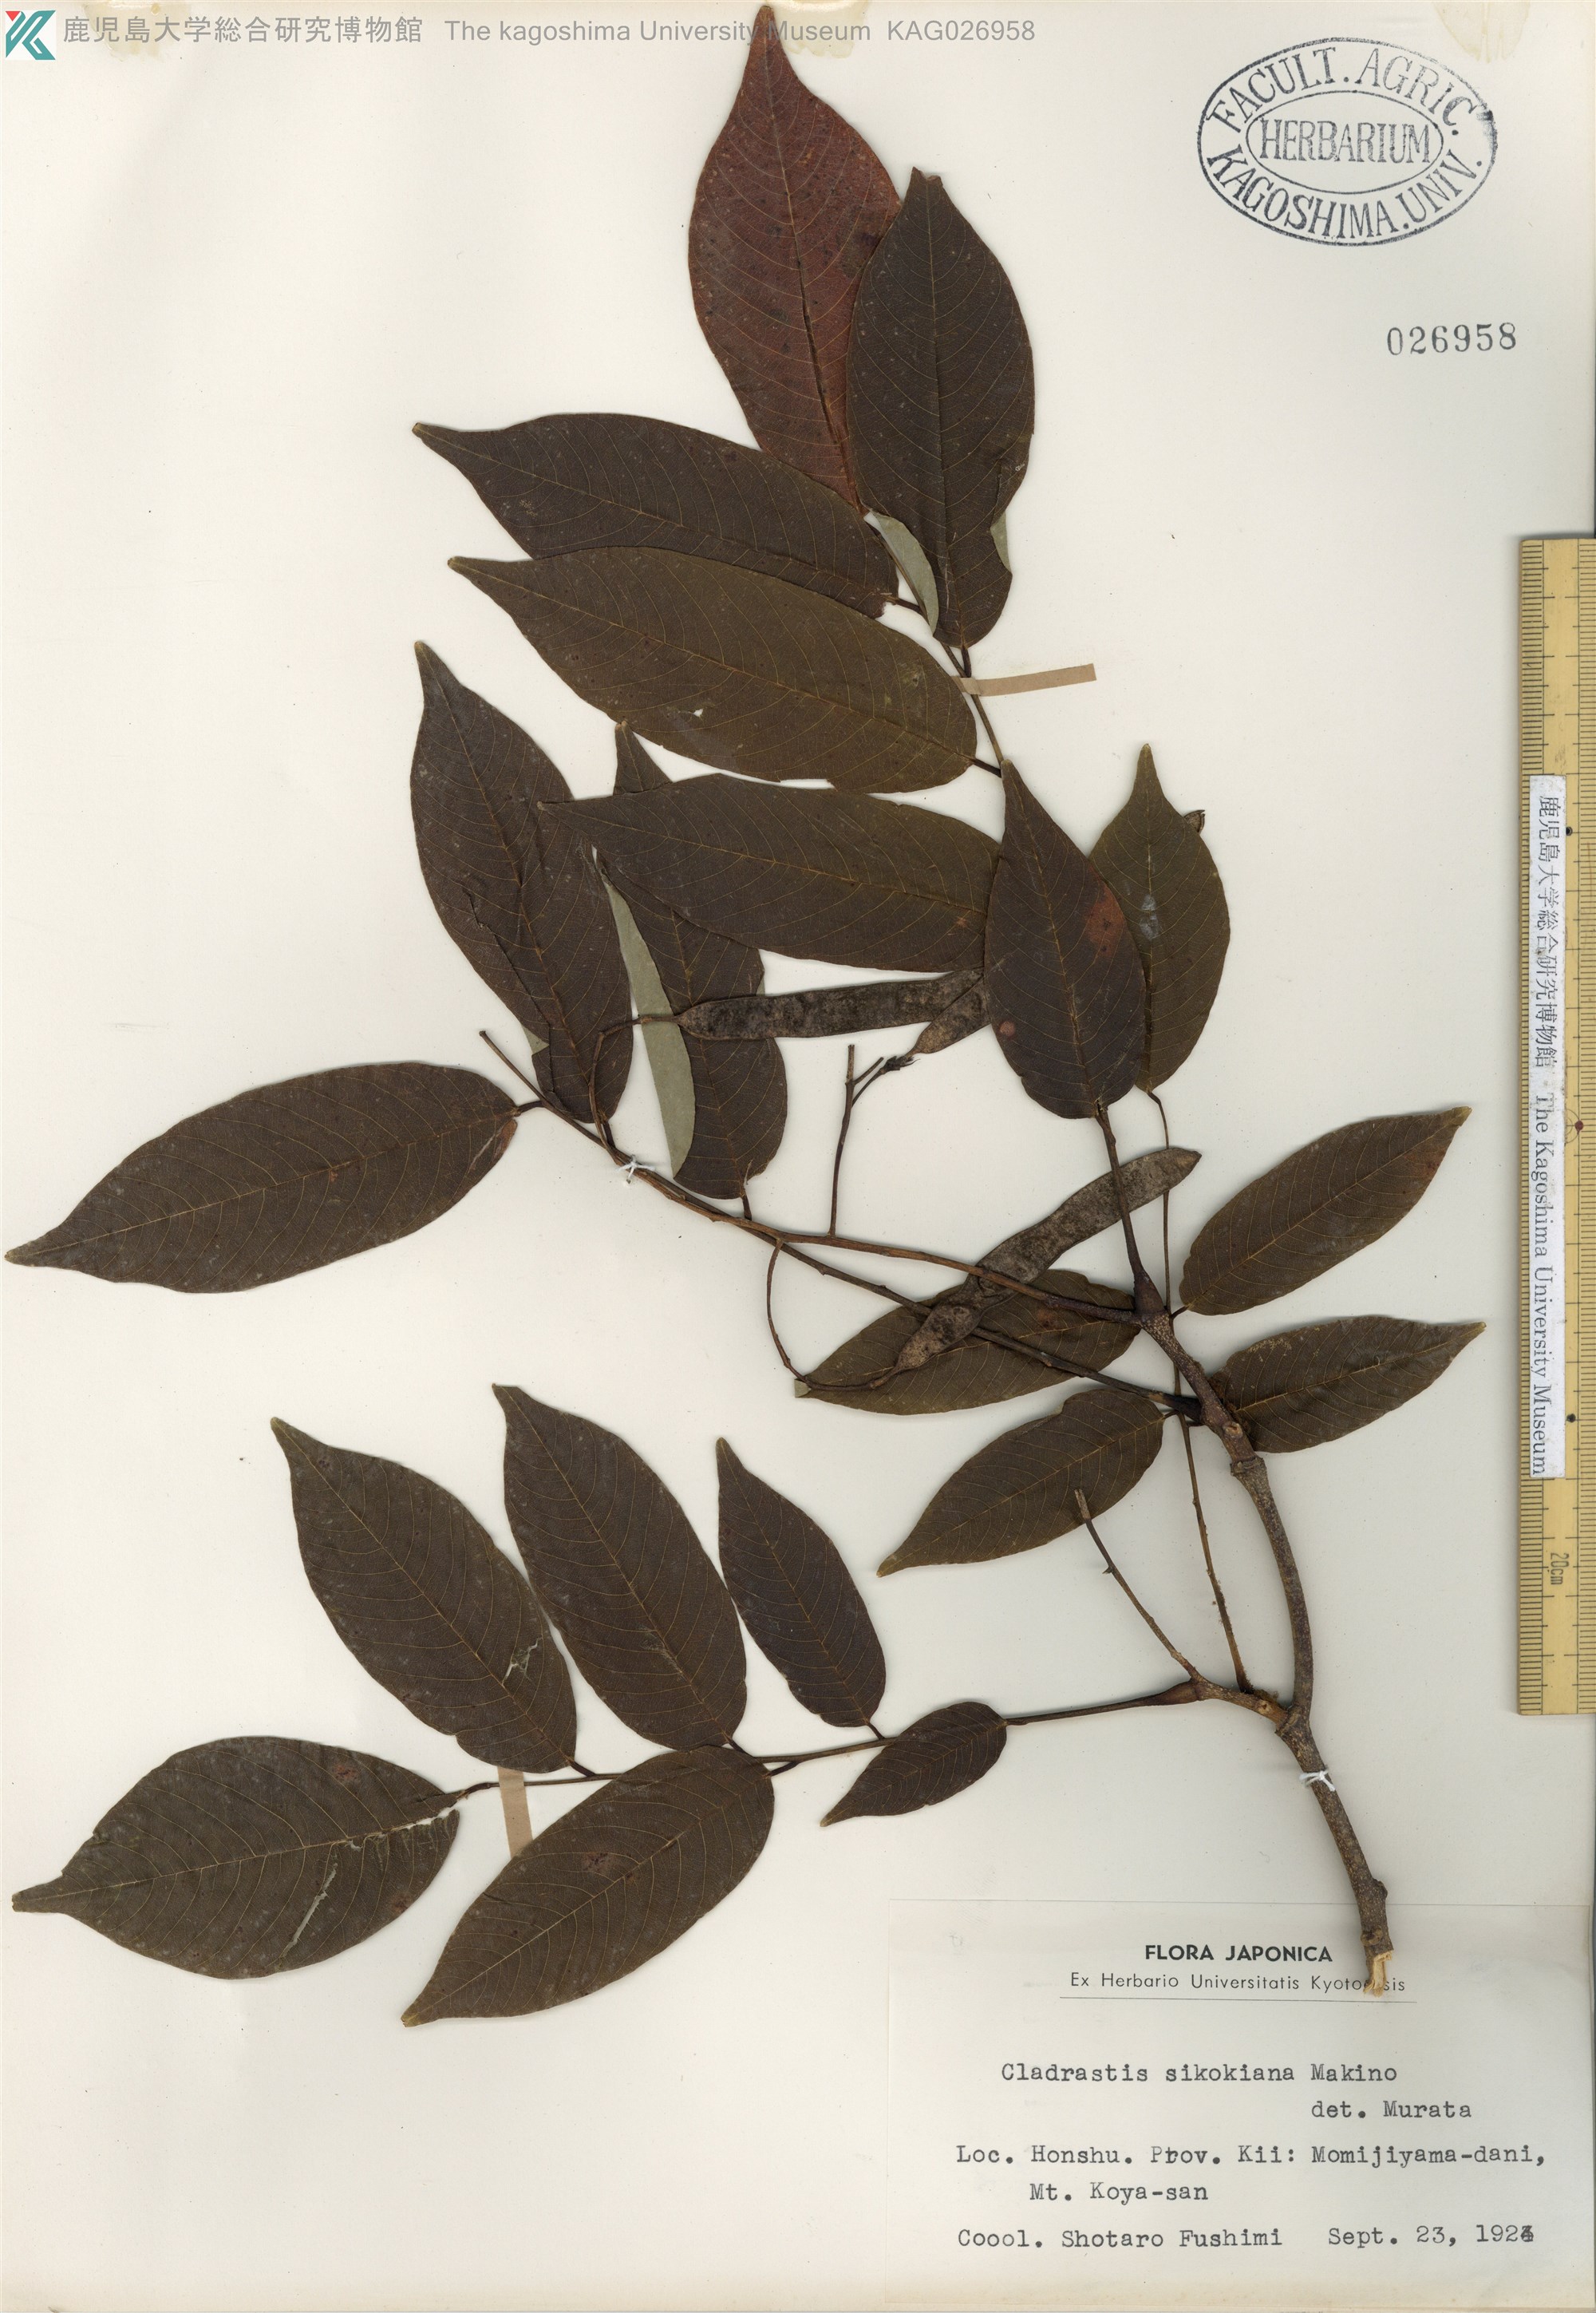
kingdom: Plantae
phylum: Tracheophyta
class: Magnoliopsida
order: Fabales
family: Fabaceae
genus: Cladrastis
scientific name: Cladrastis shikokiana
